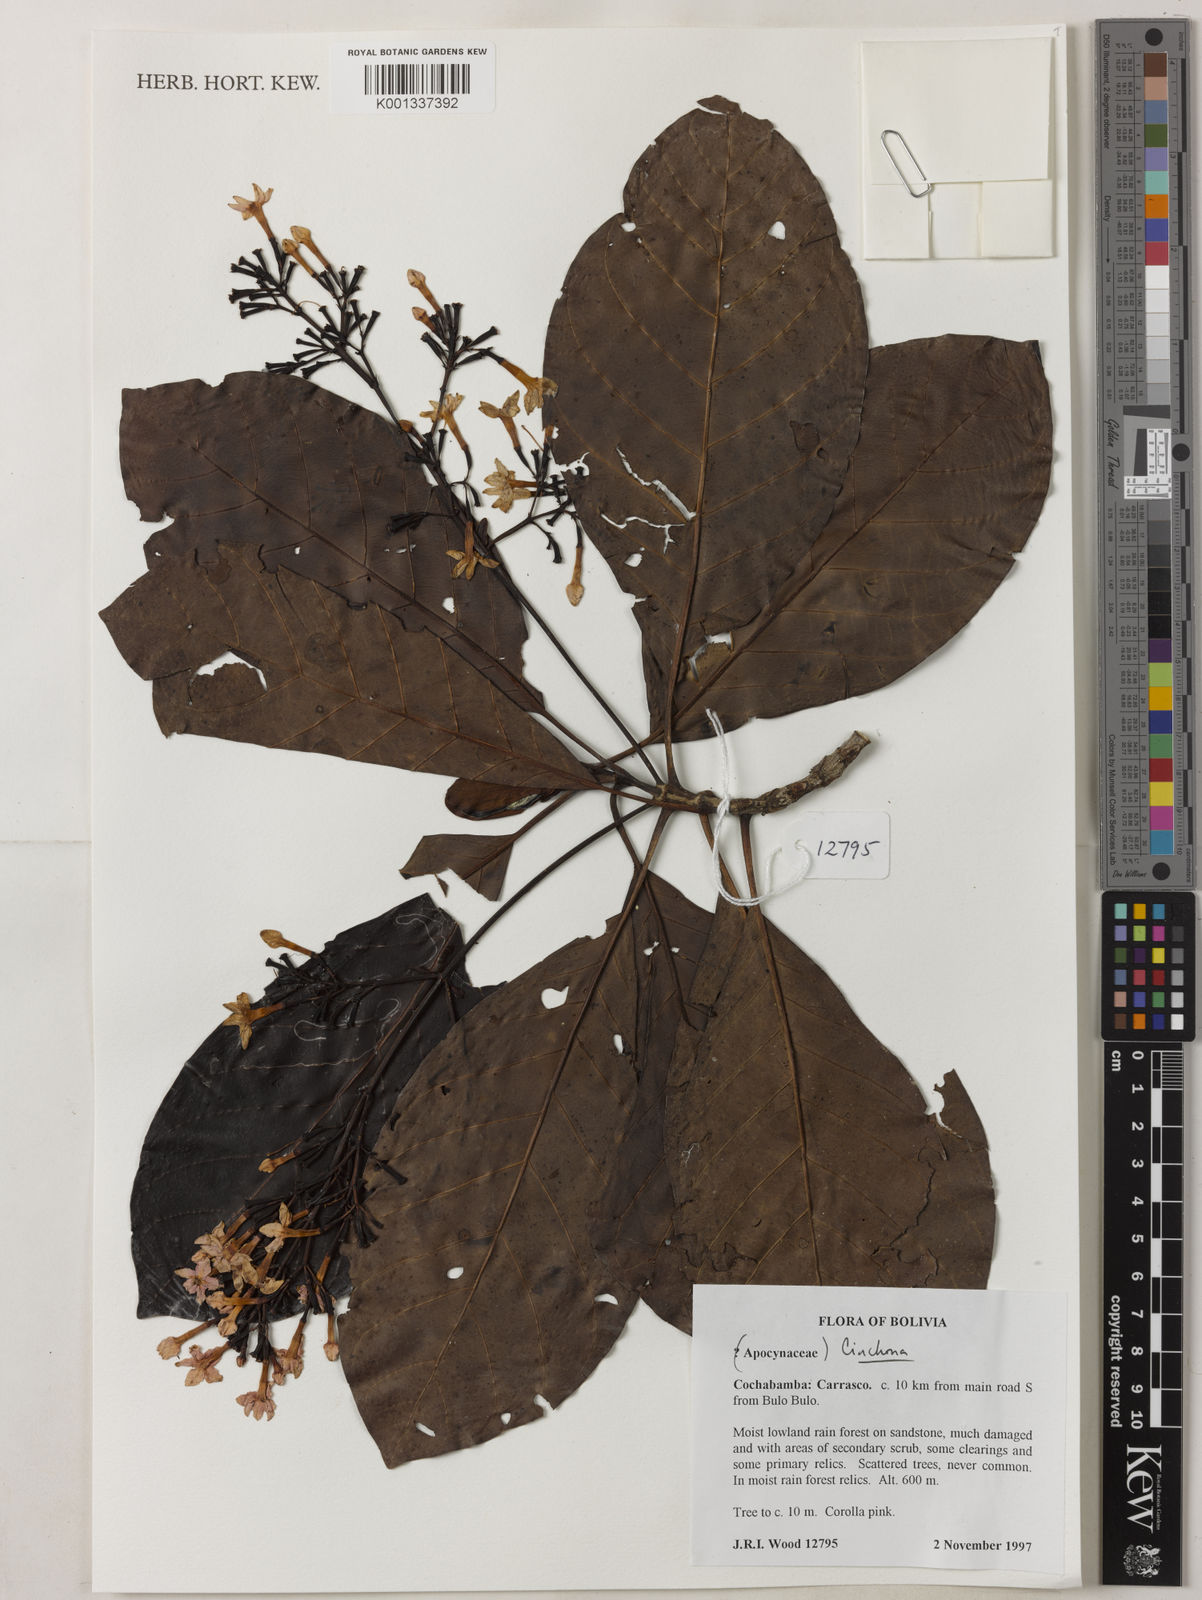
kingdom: Plantae
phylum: Tracheophyta
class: Magnoliopsida
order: Gentianales
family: Rubiaceae
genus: Cinchona
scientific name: Cinchona
